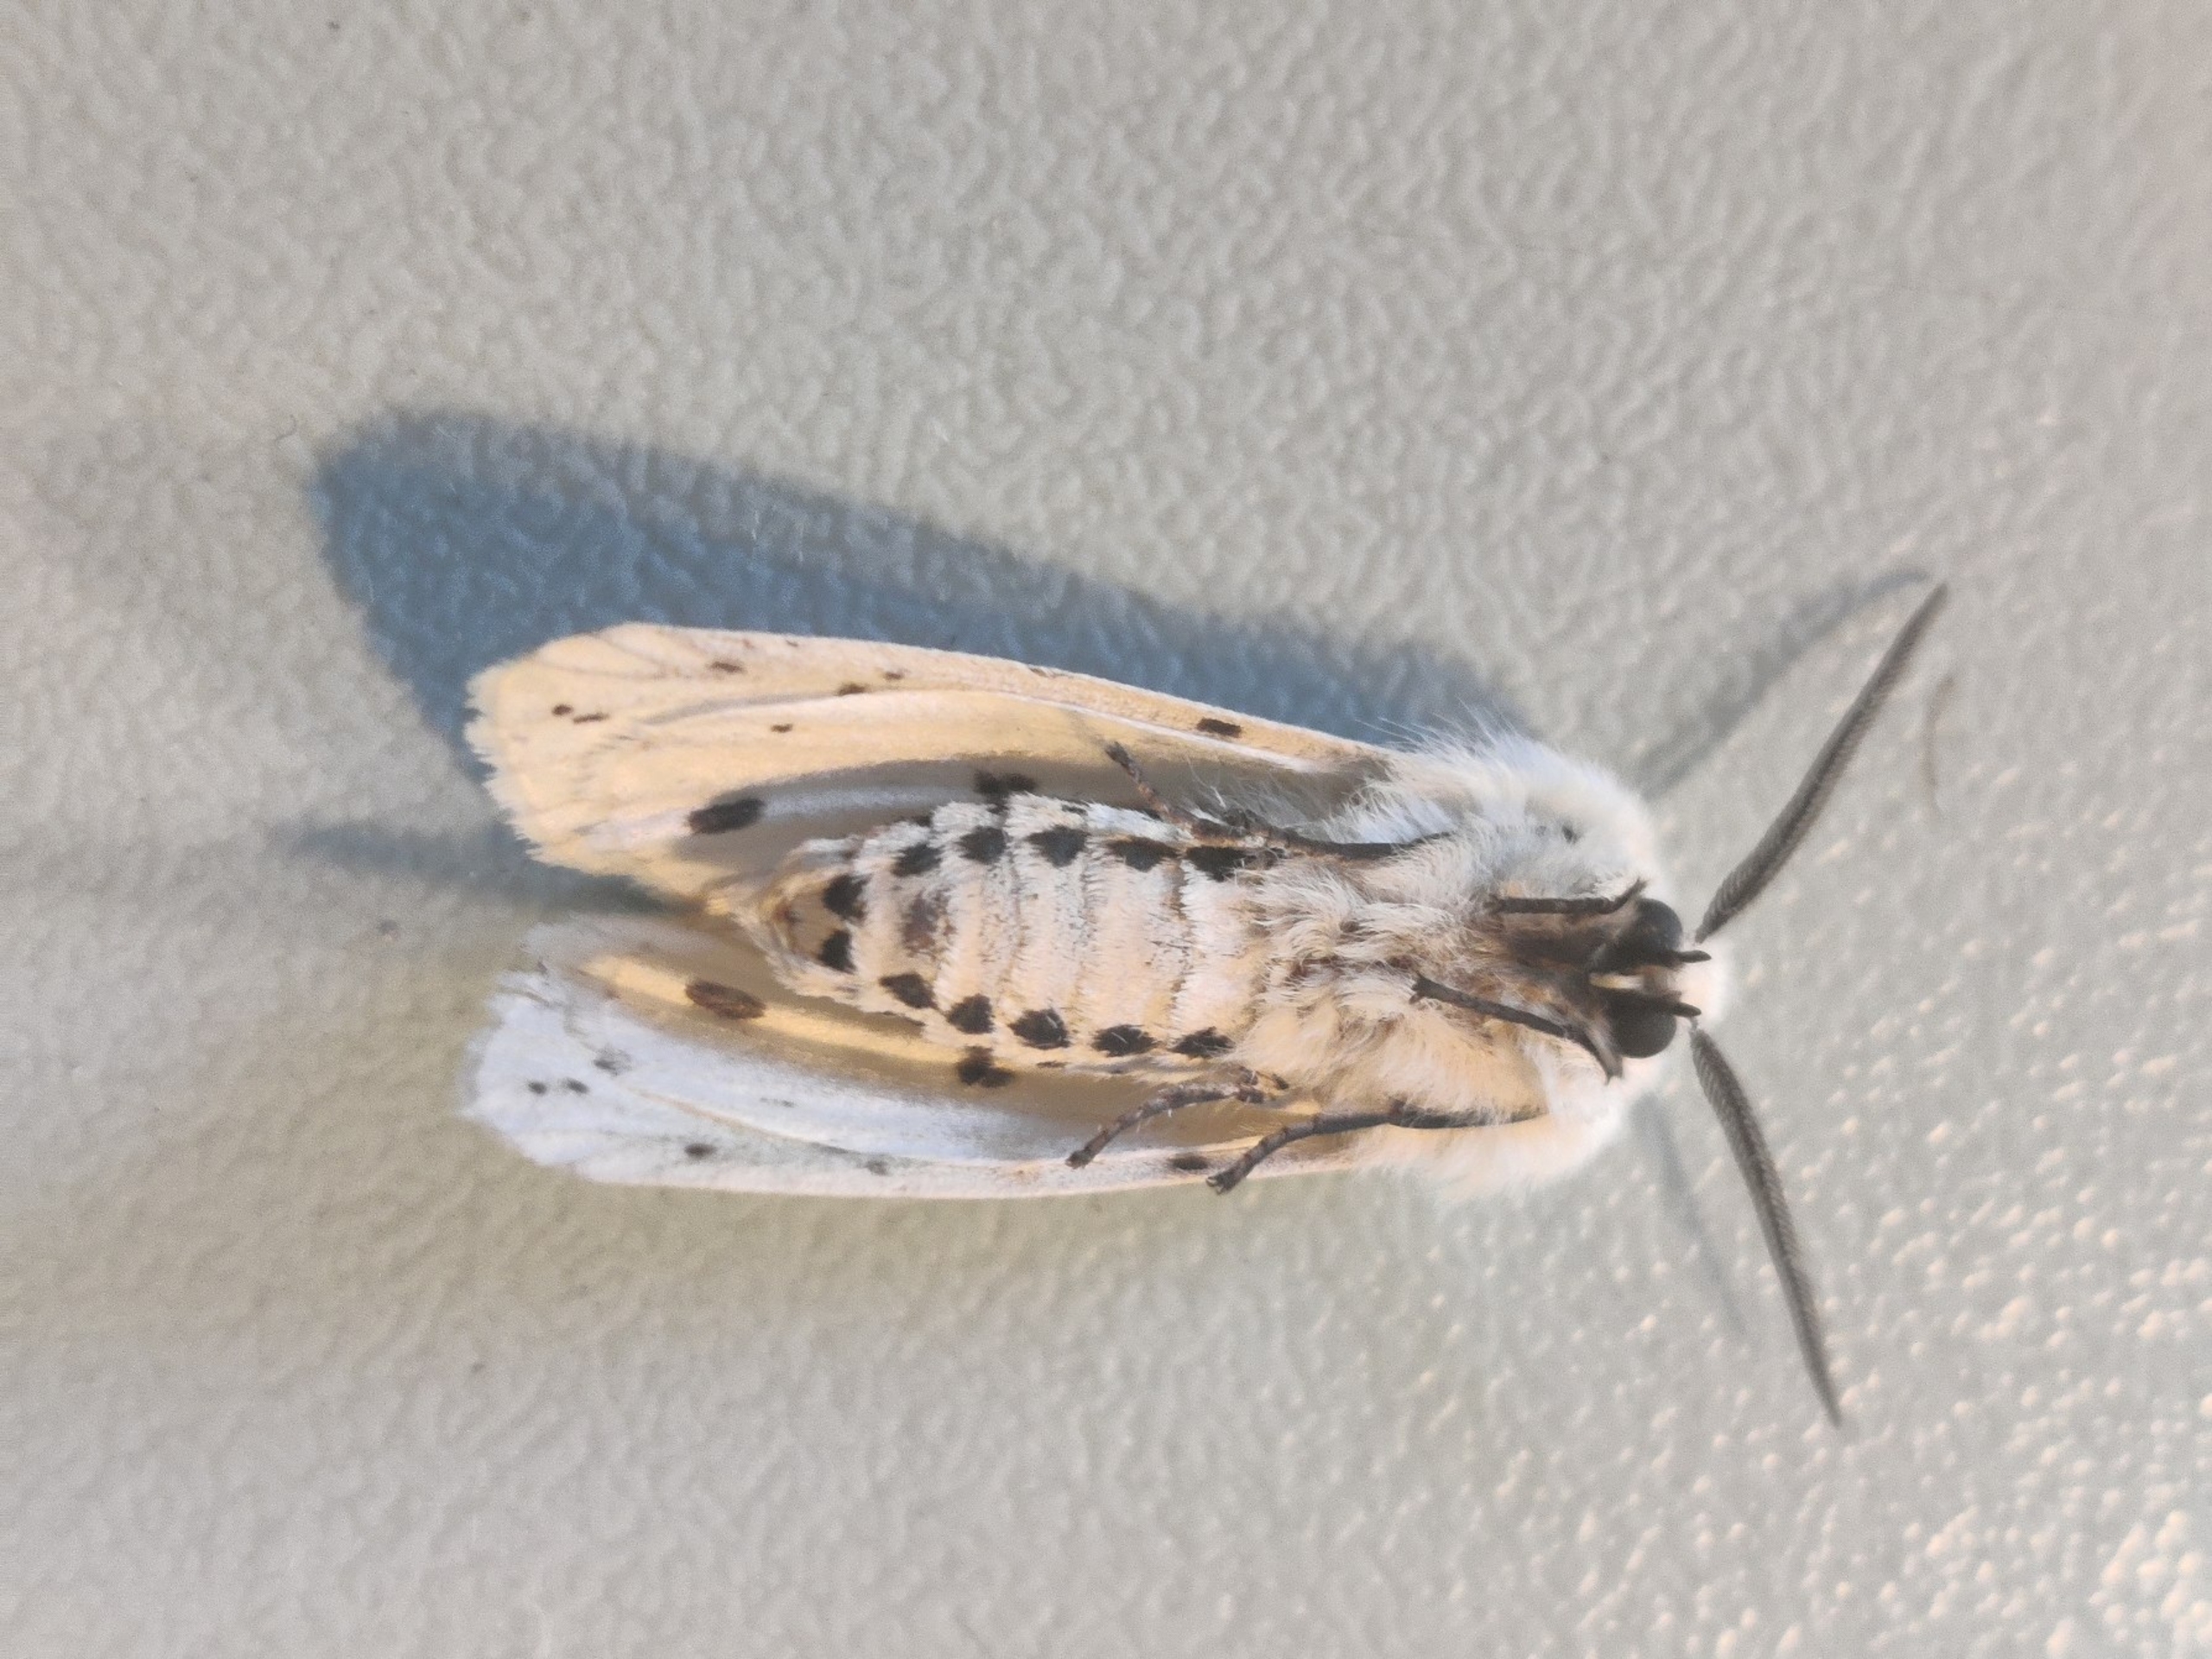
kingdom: Animalia
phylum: Arthropoda
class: Insecta
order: Lepidoptera
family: Erebidae
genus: Spilosoma
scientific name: Spilosoma lubricipeda
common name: Almindelig tigerspinder
